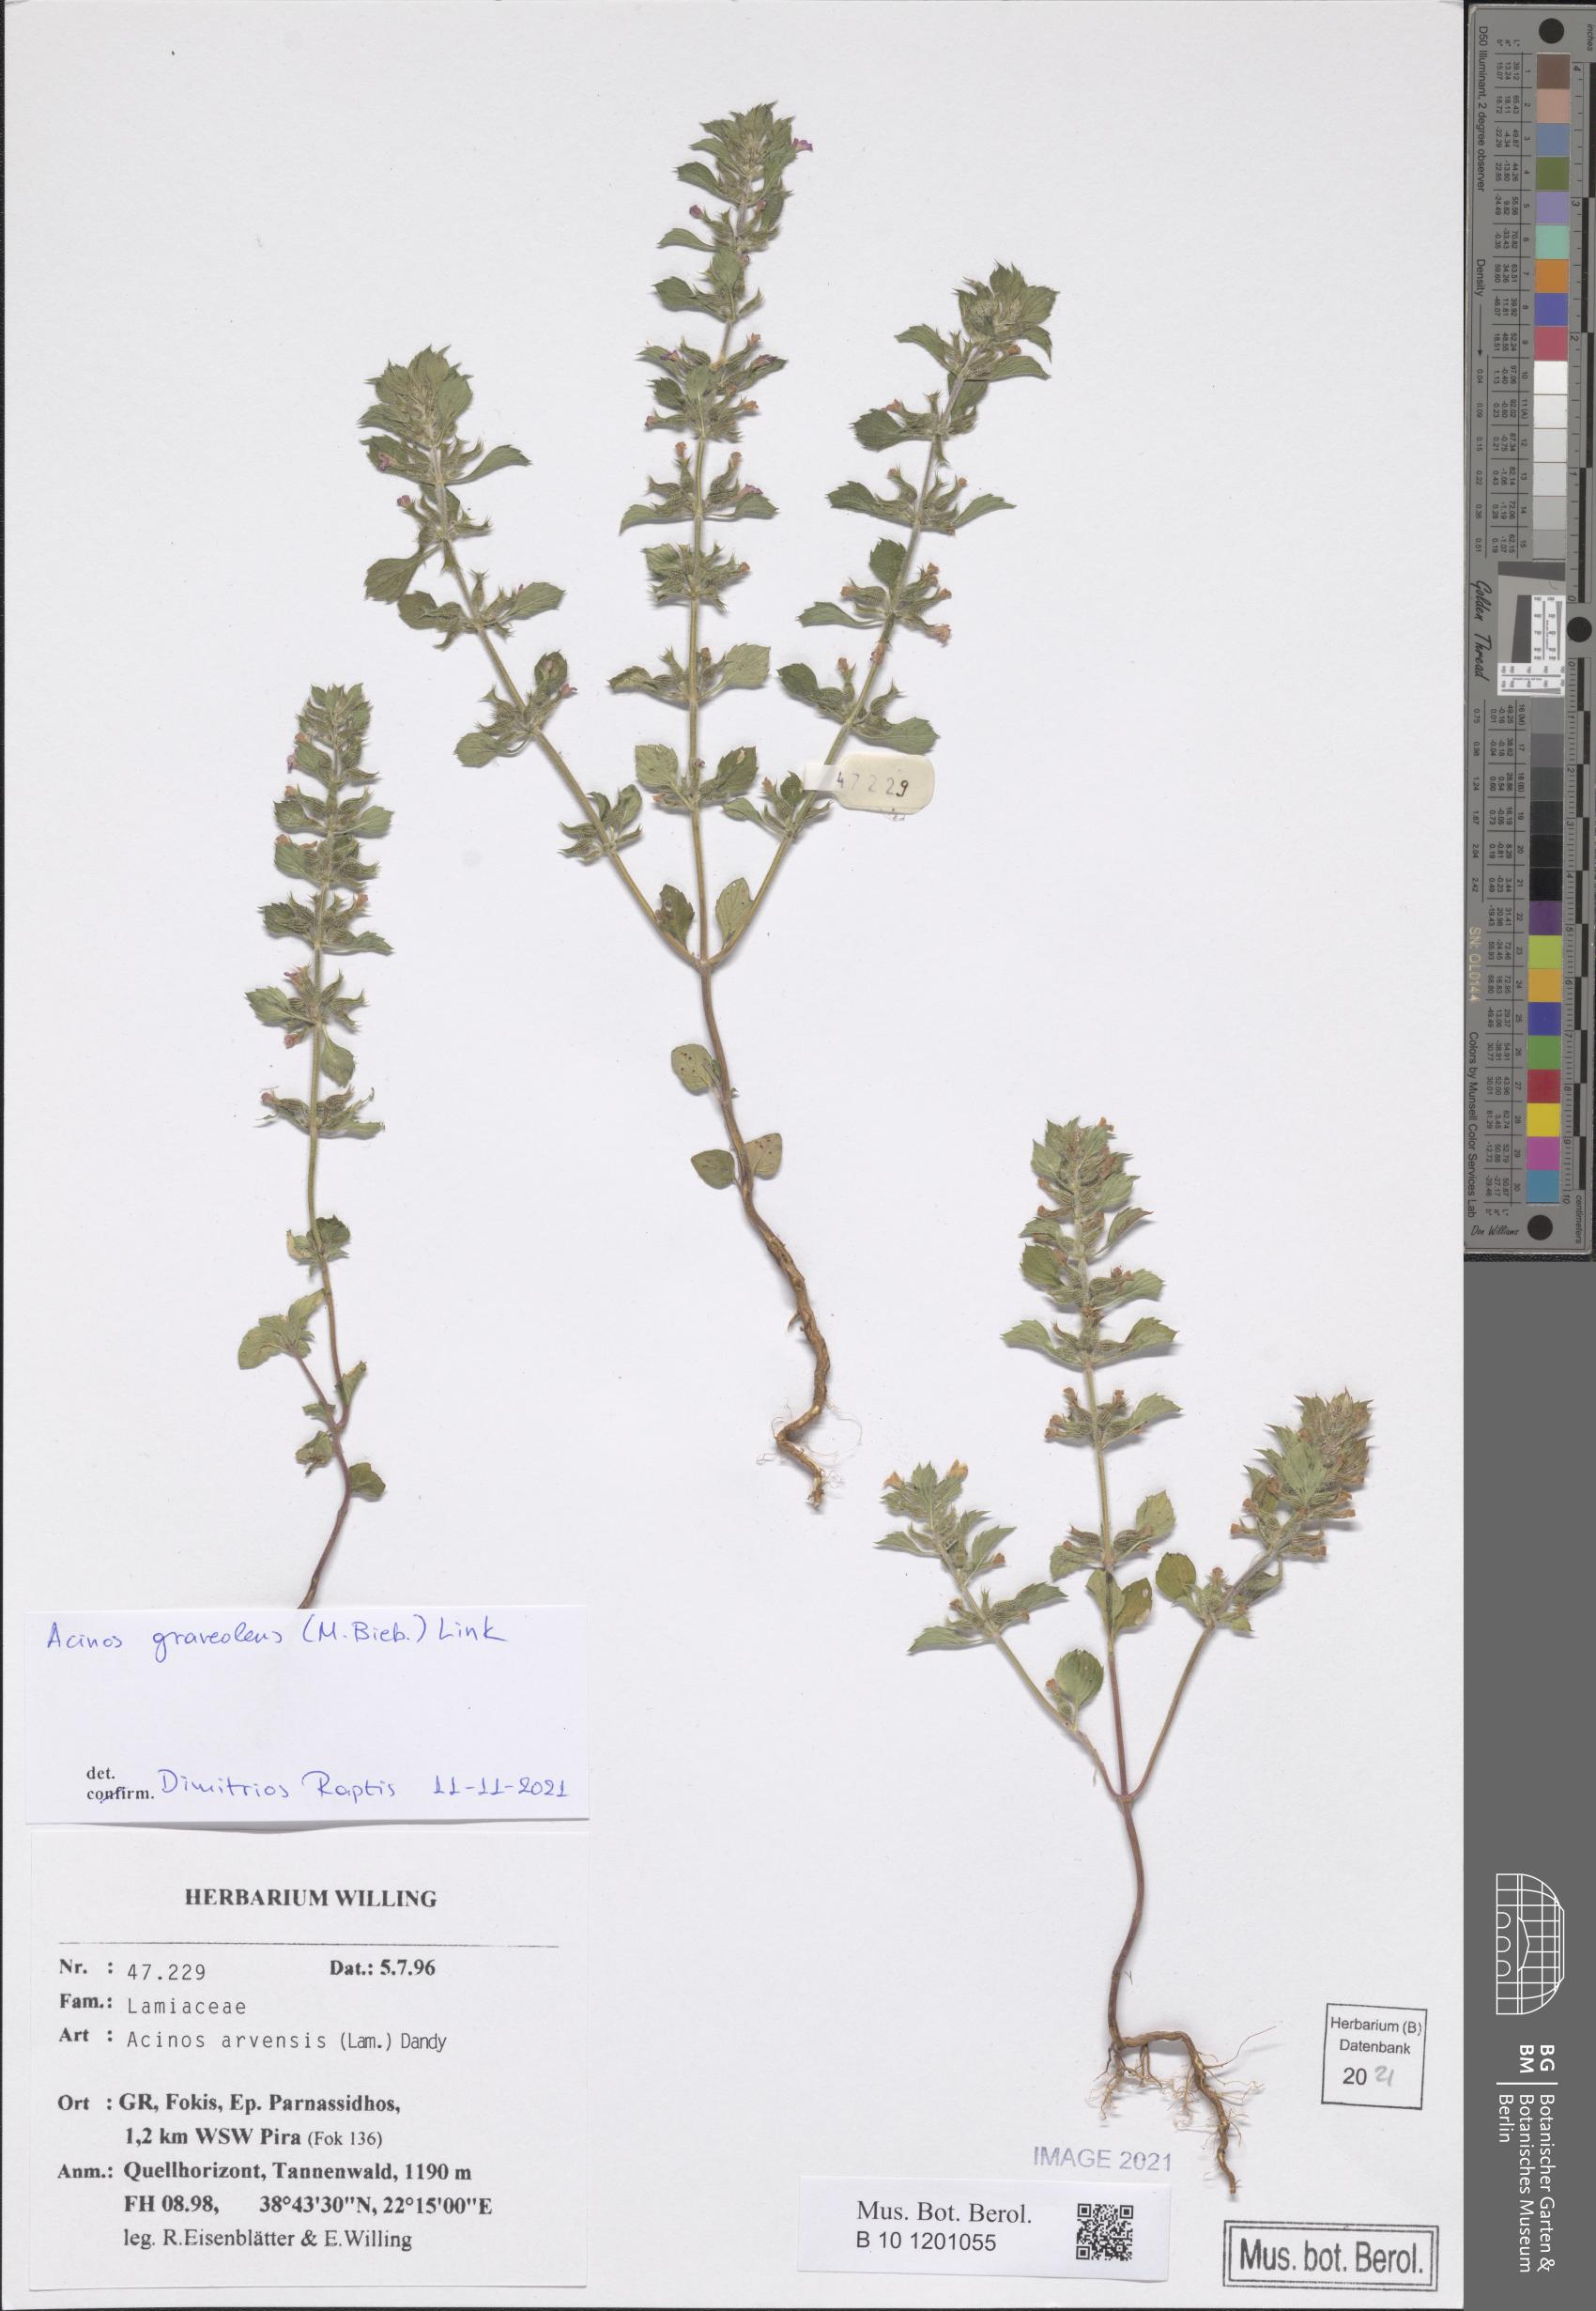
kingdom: Plantae
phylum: Tracheophyta
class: Magnoliopsida
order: Lamiales
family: Lamiaceae
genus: Clinopodium
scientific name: Clinopodium graveolens
